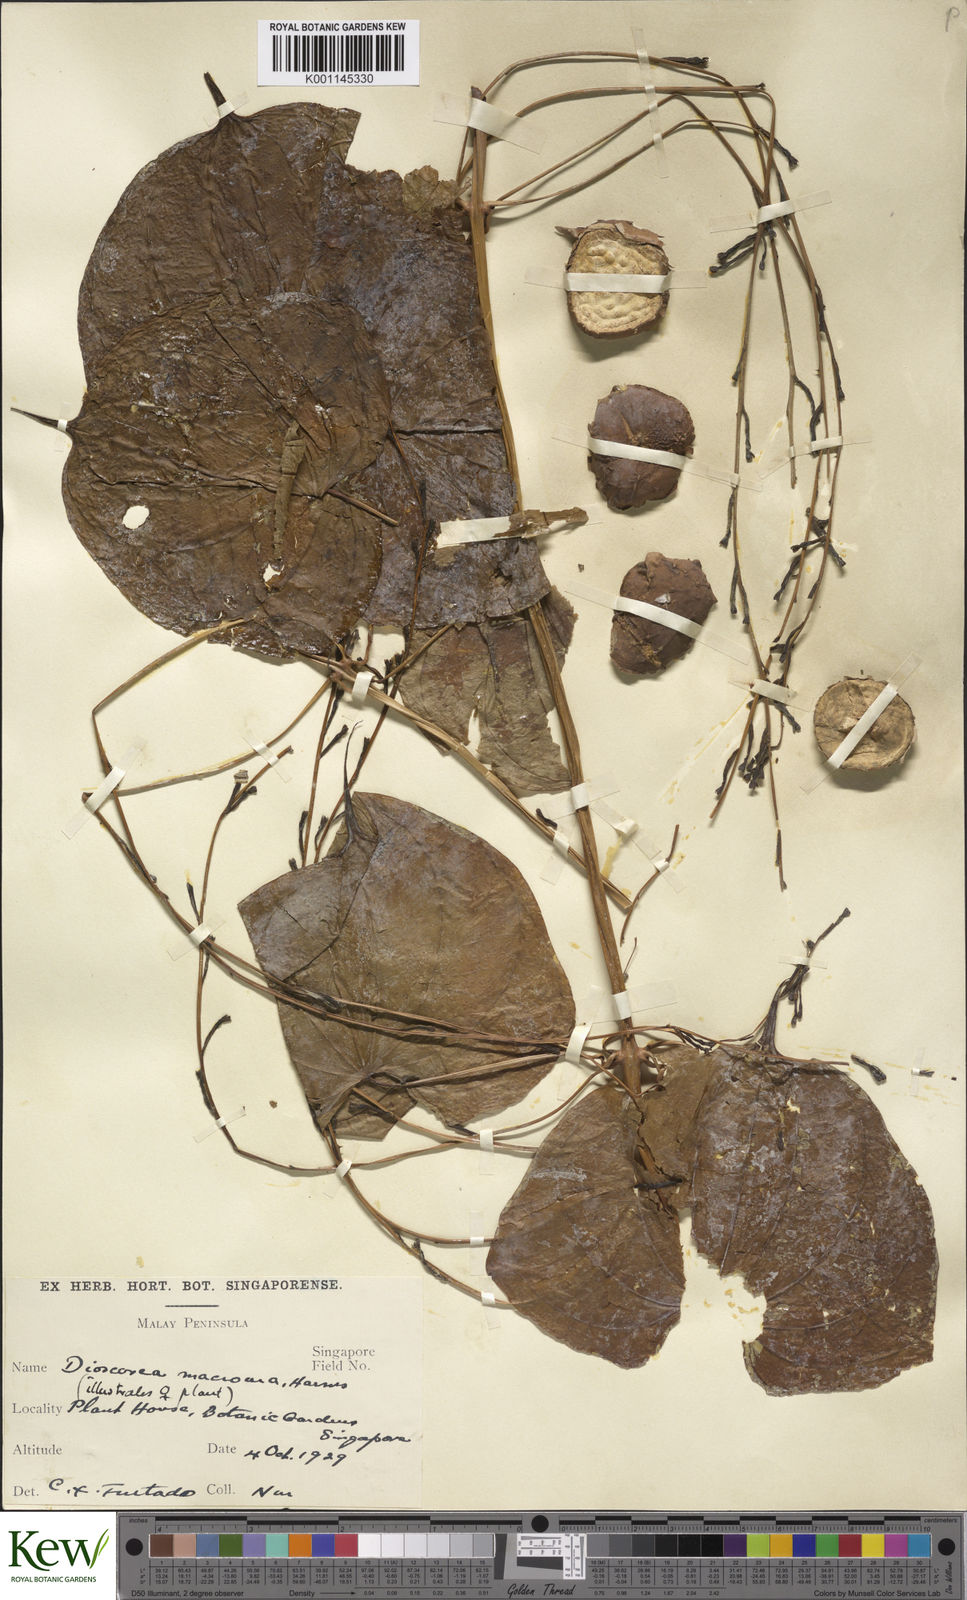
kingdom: Plantae
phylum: Tracheophyta
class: Liliopsida
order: Dioscoreales
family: Dioscoreaceae
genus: Dioscorea
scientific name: Dioscorea sansibarensis
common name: Zanzibar yam
